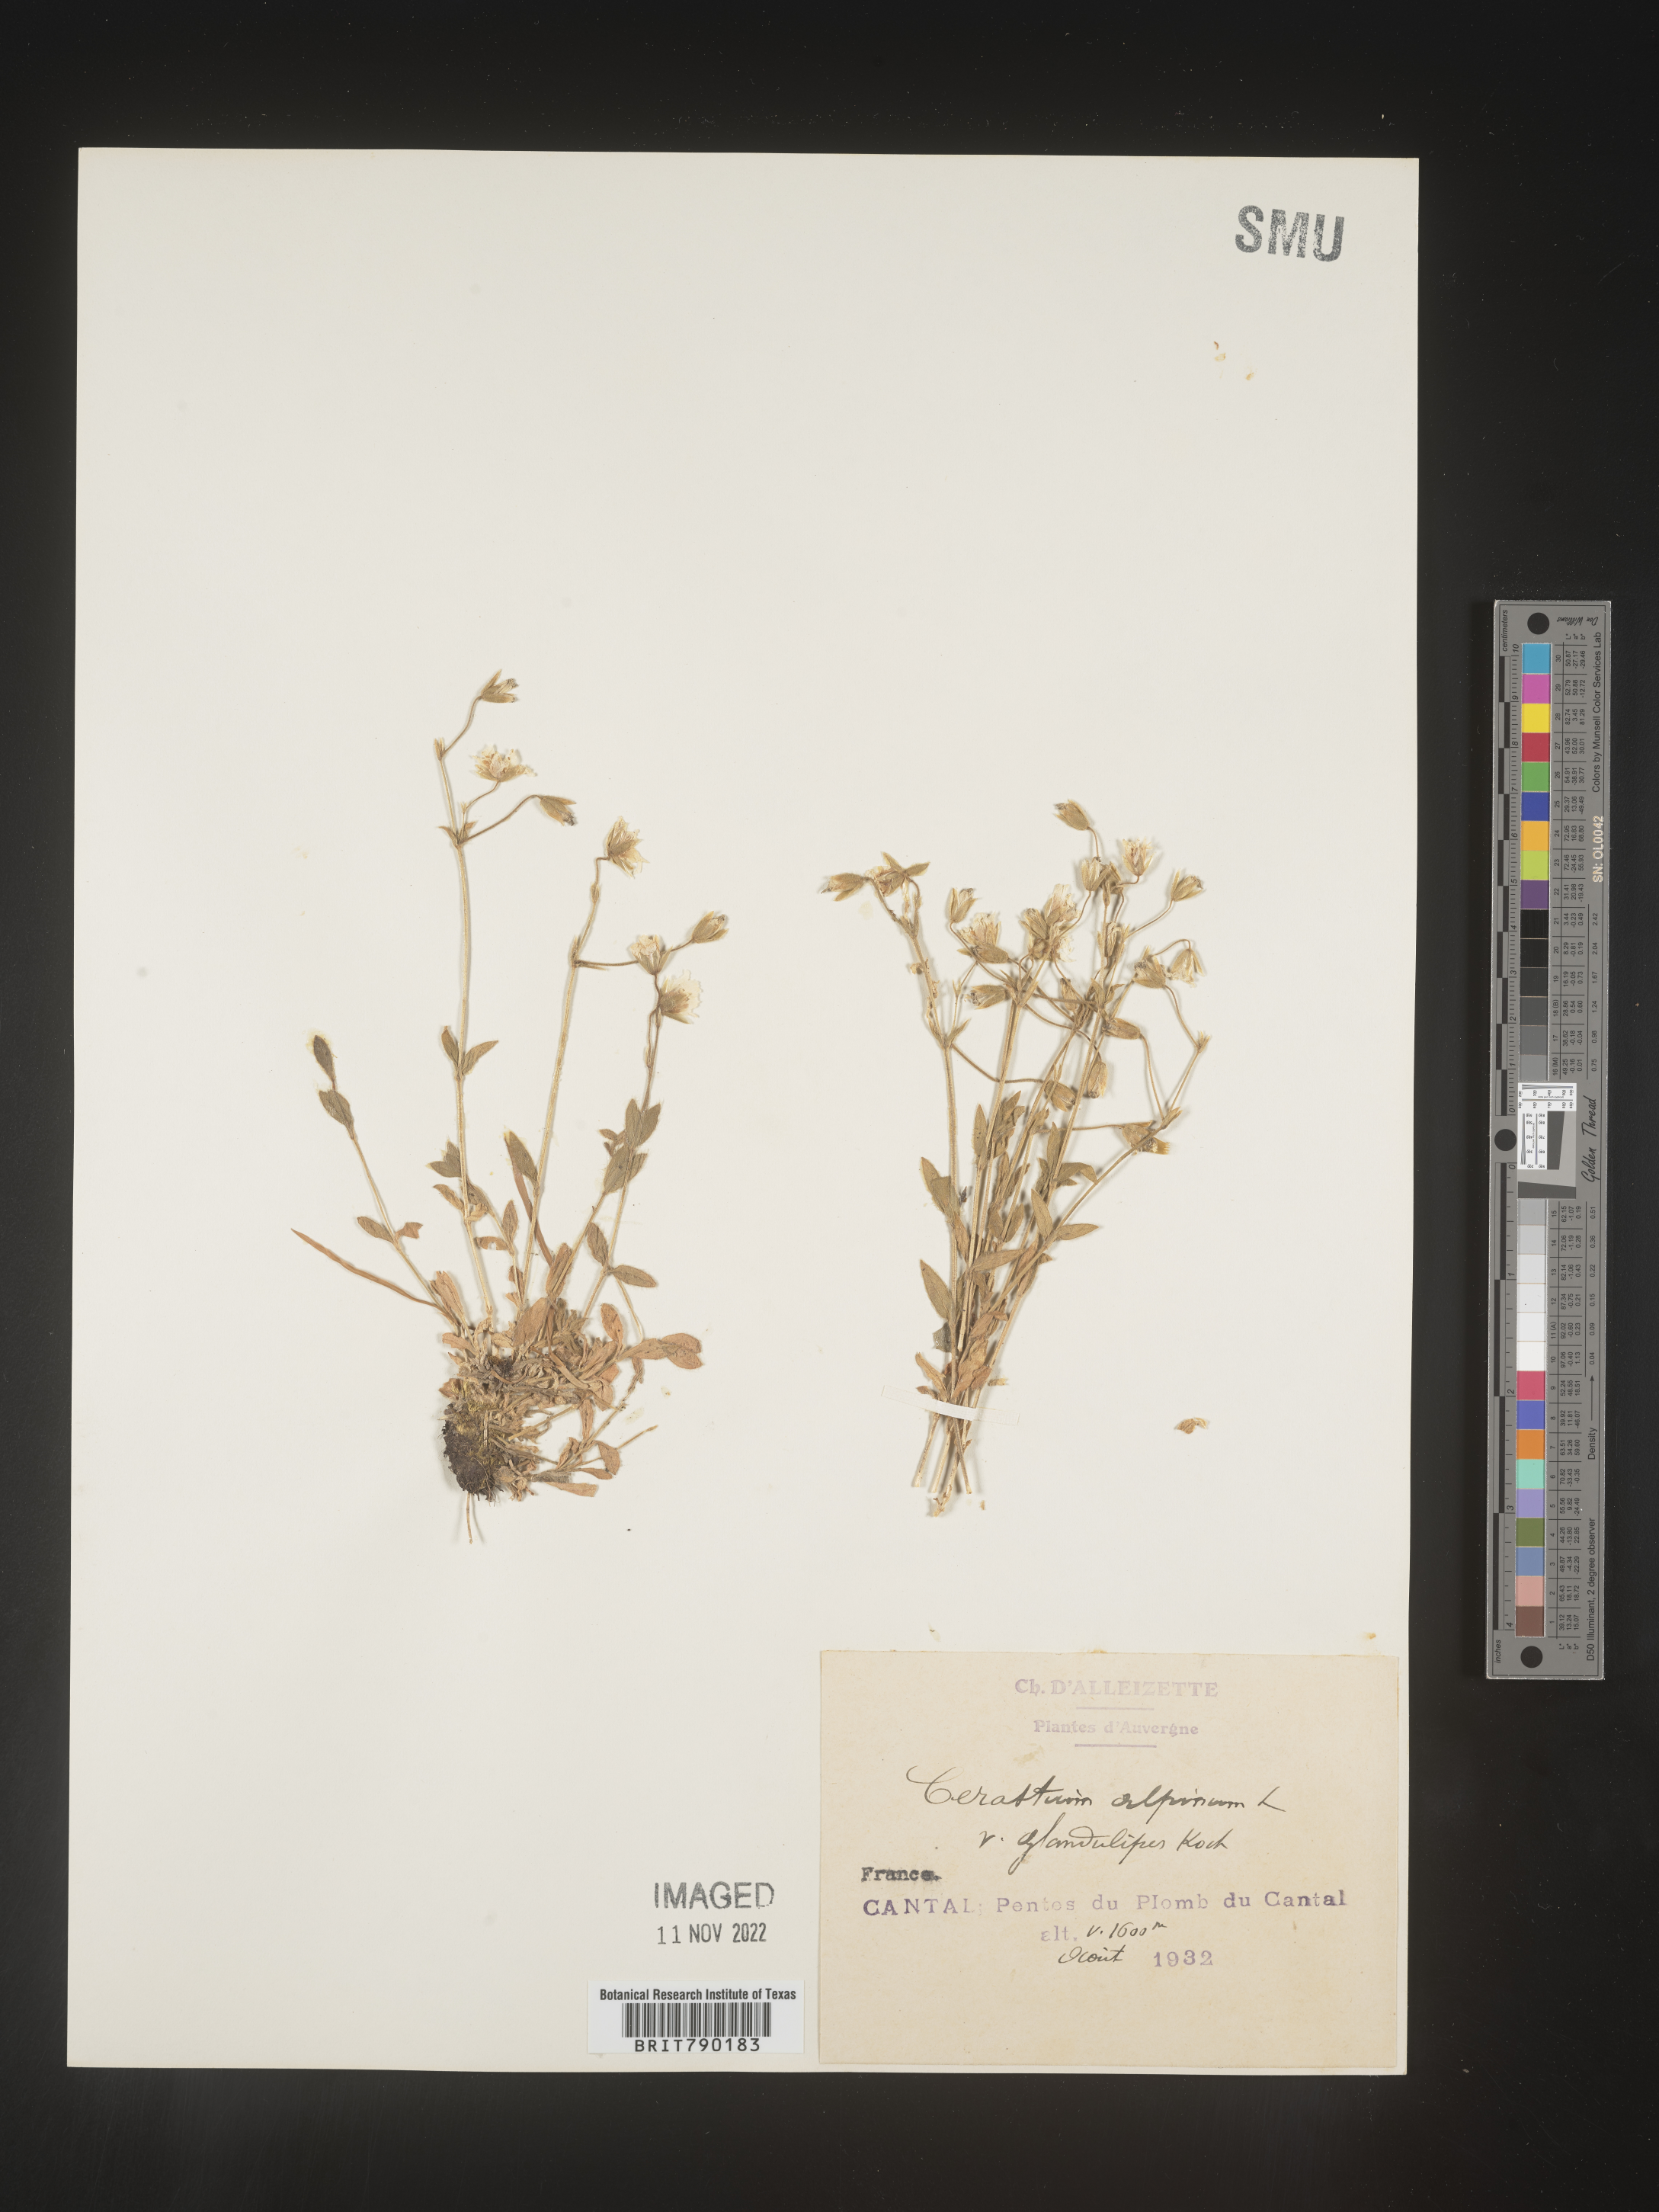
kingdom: Plantae
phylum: Tracheophyta
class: Magnoliopsida
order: Caryophyllales
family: Caryophyllaceae
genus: Cerastium
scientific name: Cerastium
